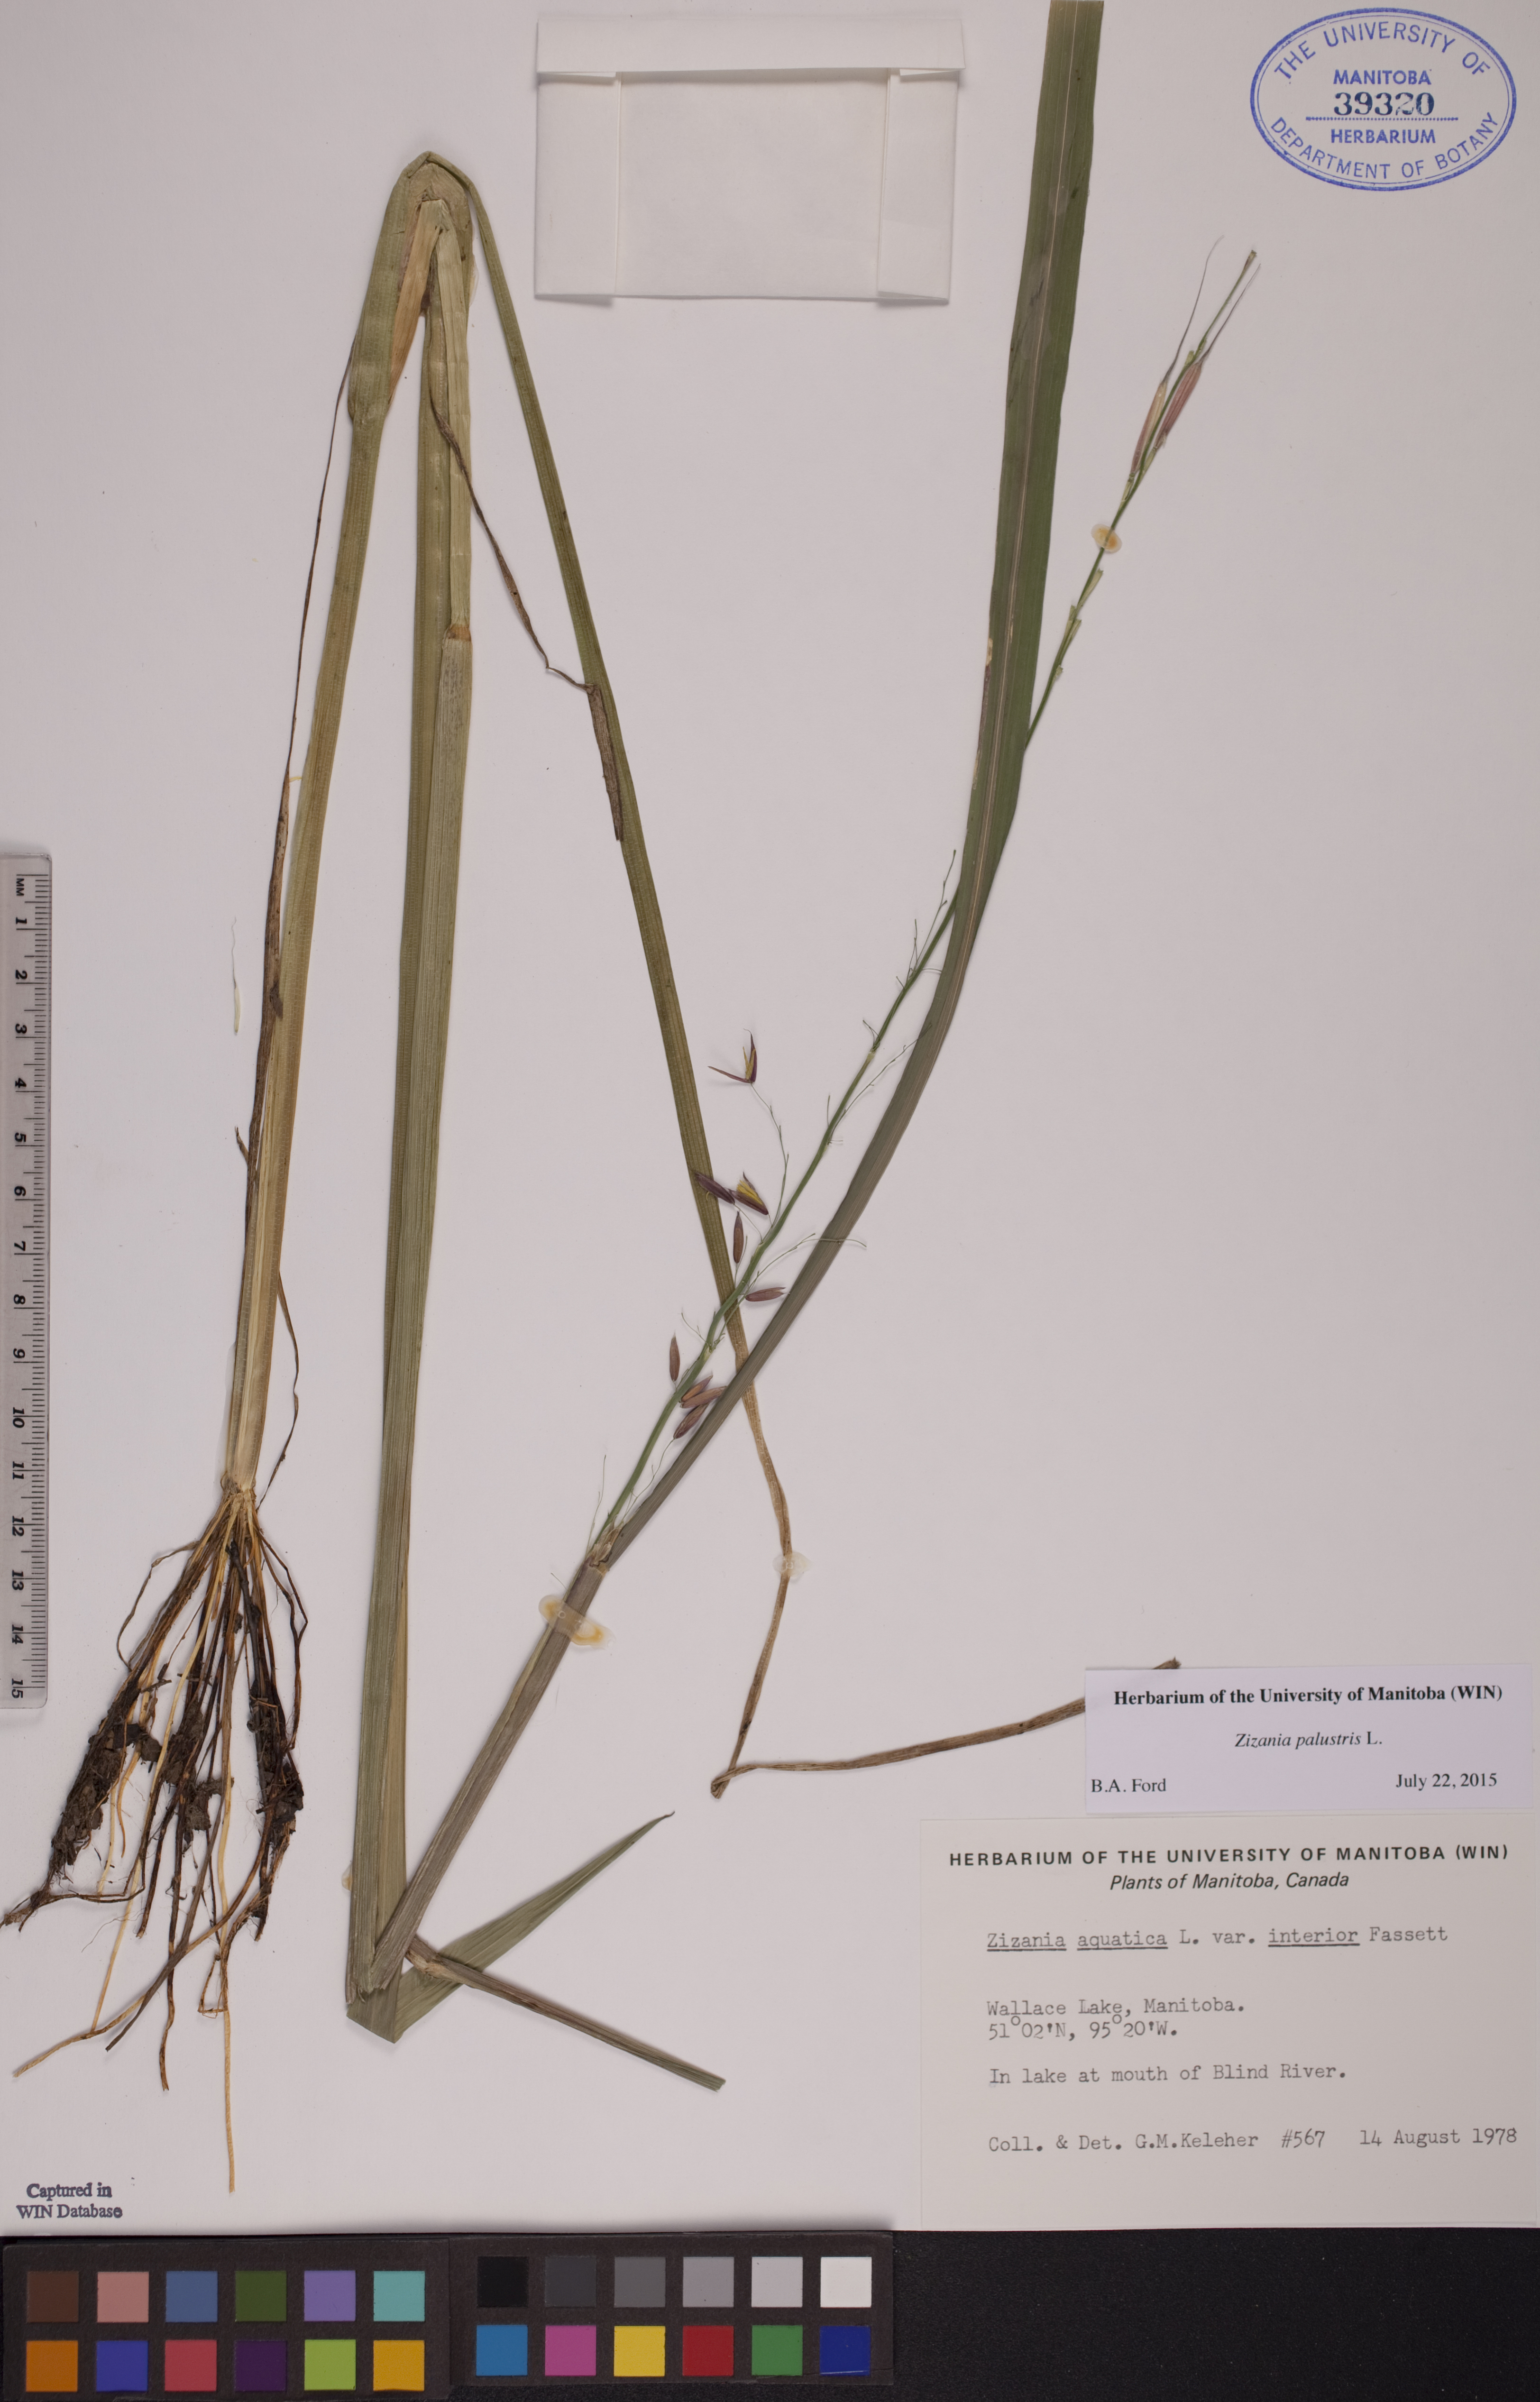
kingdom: Plantae
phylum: Tracheophyta
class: Liliopsida
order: Poales
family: Poaceae
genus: Zizania
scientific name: Zizania palustris
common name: Northern wild rice
